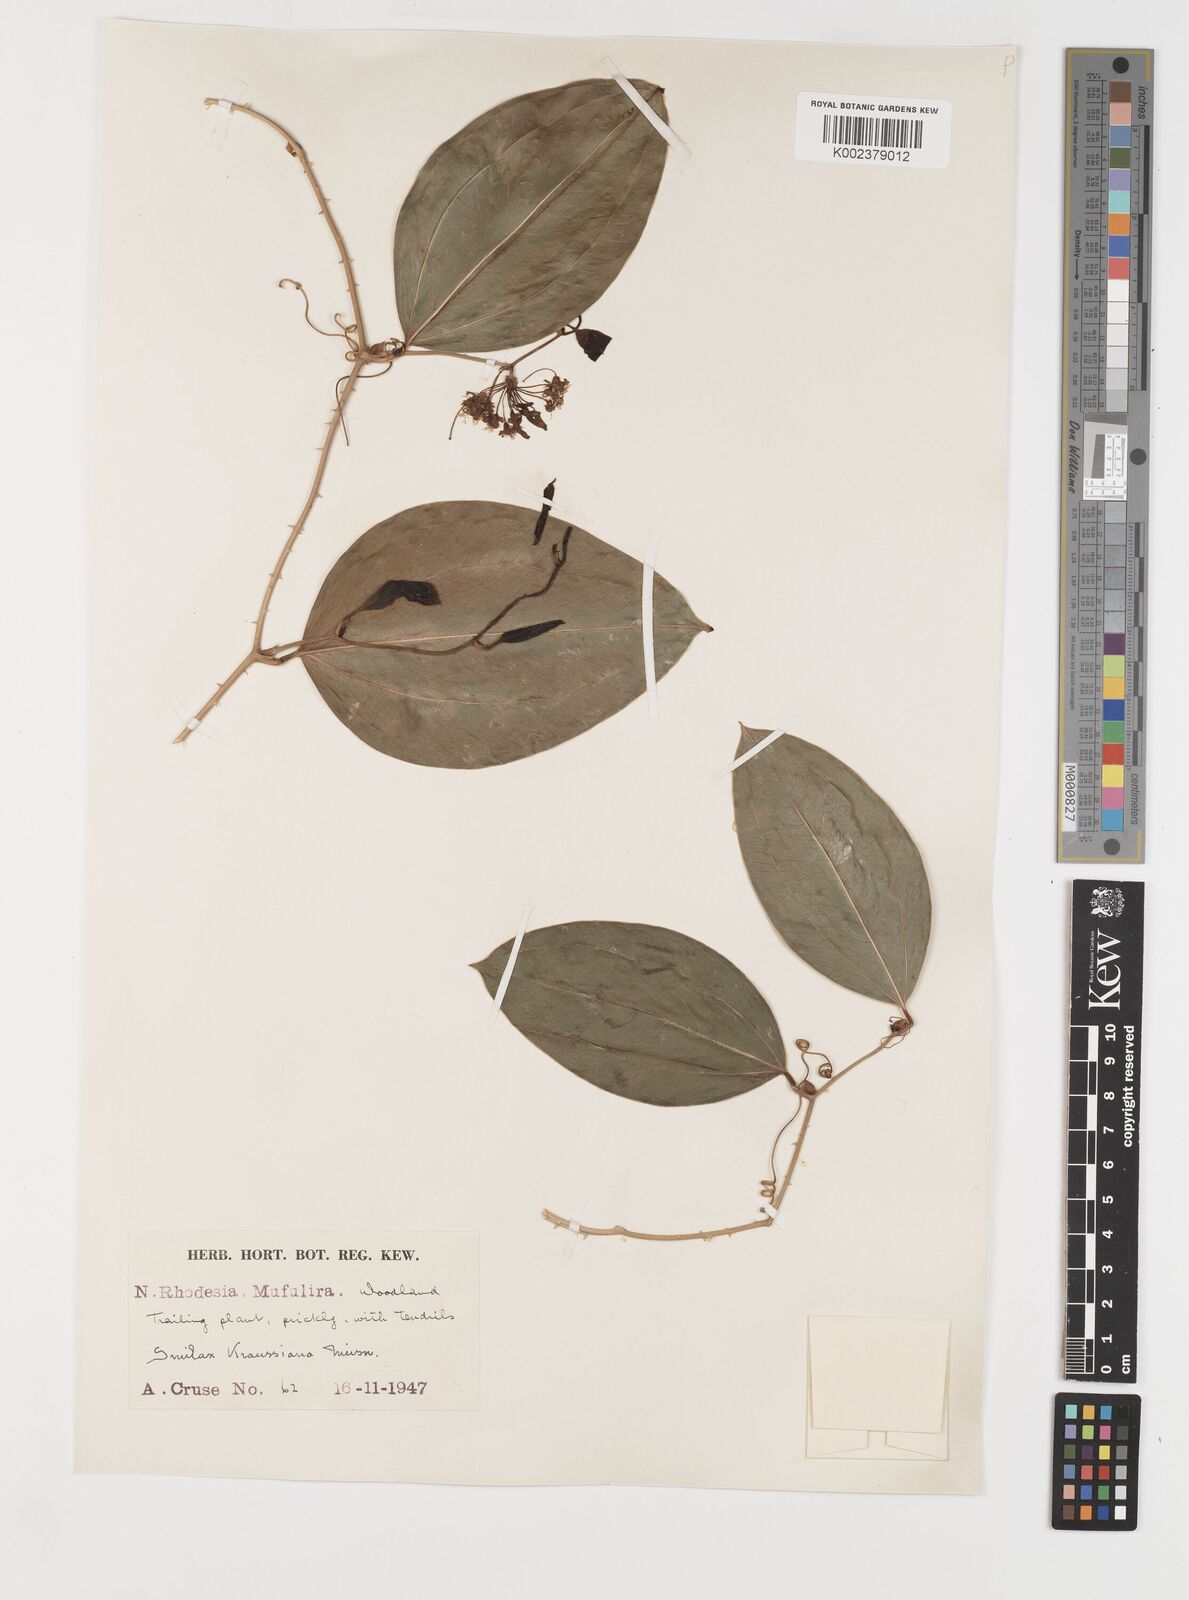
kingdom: Plantae
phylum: Tracheophyta
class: Liliopsida
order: Liliales
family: Smilacaceae
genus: Smilax
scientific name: Smilax anceps
